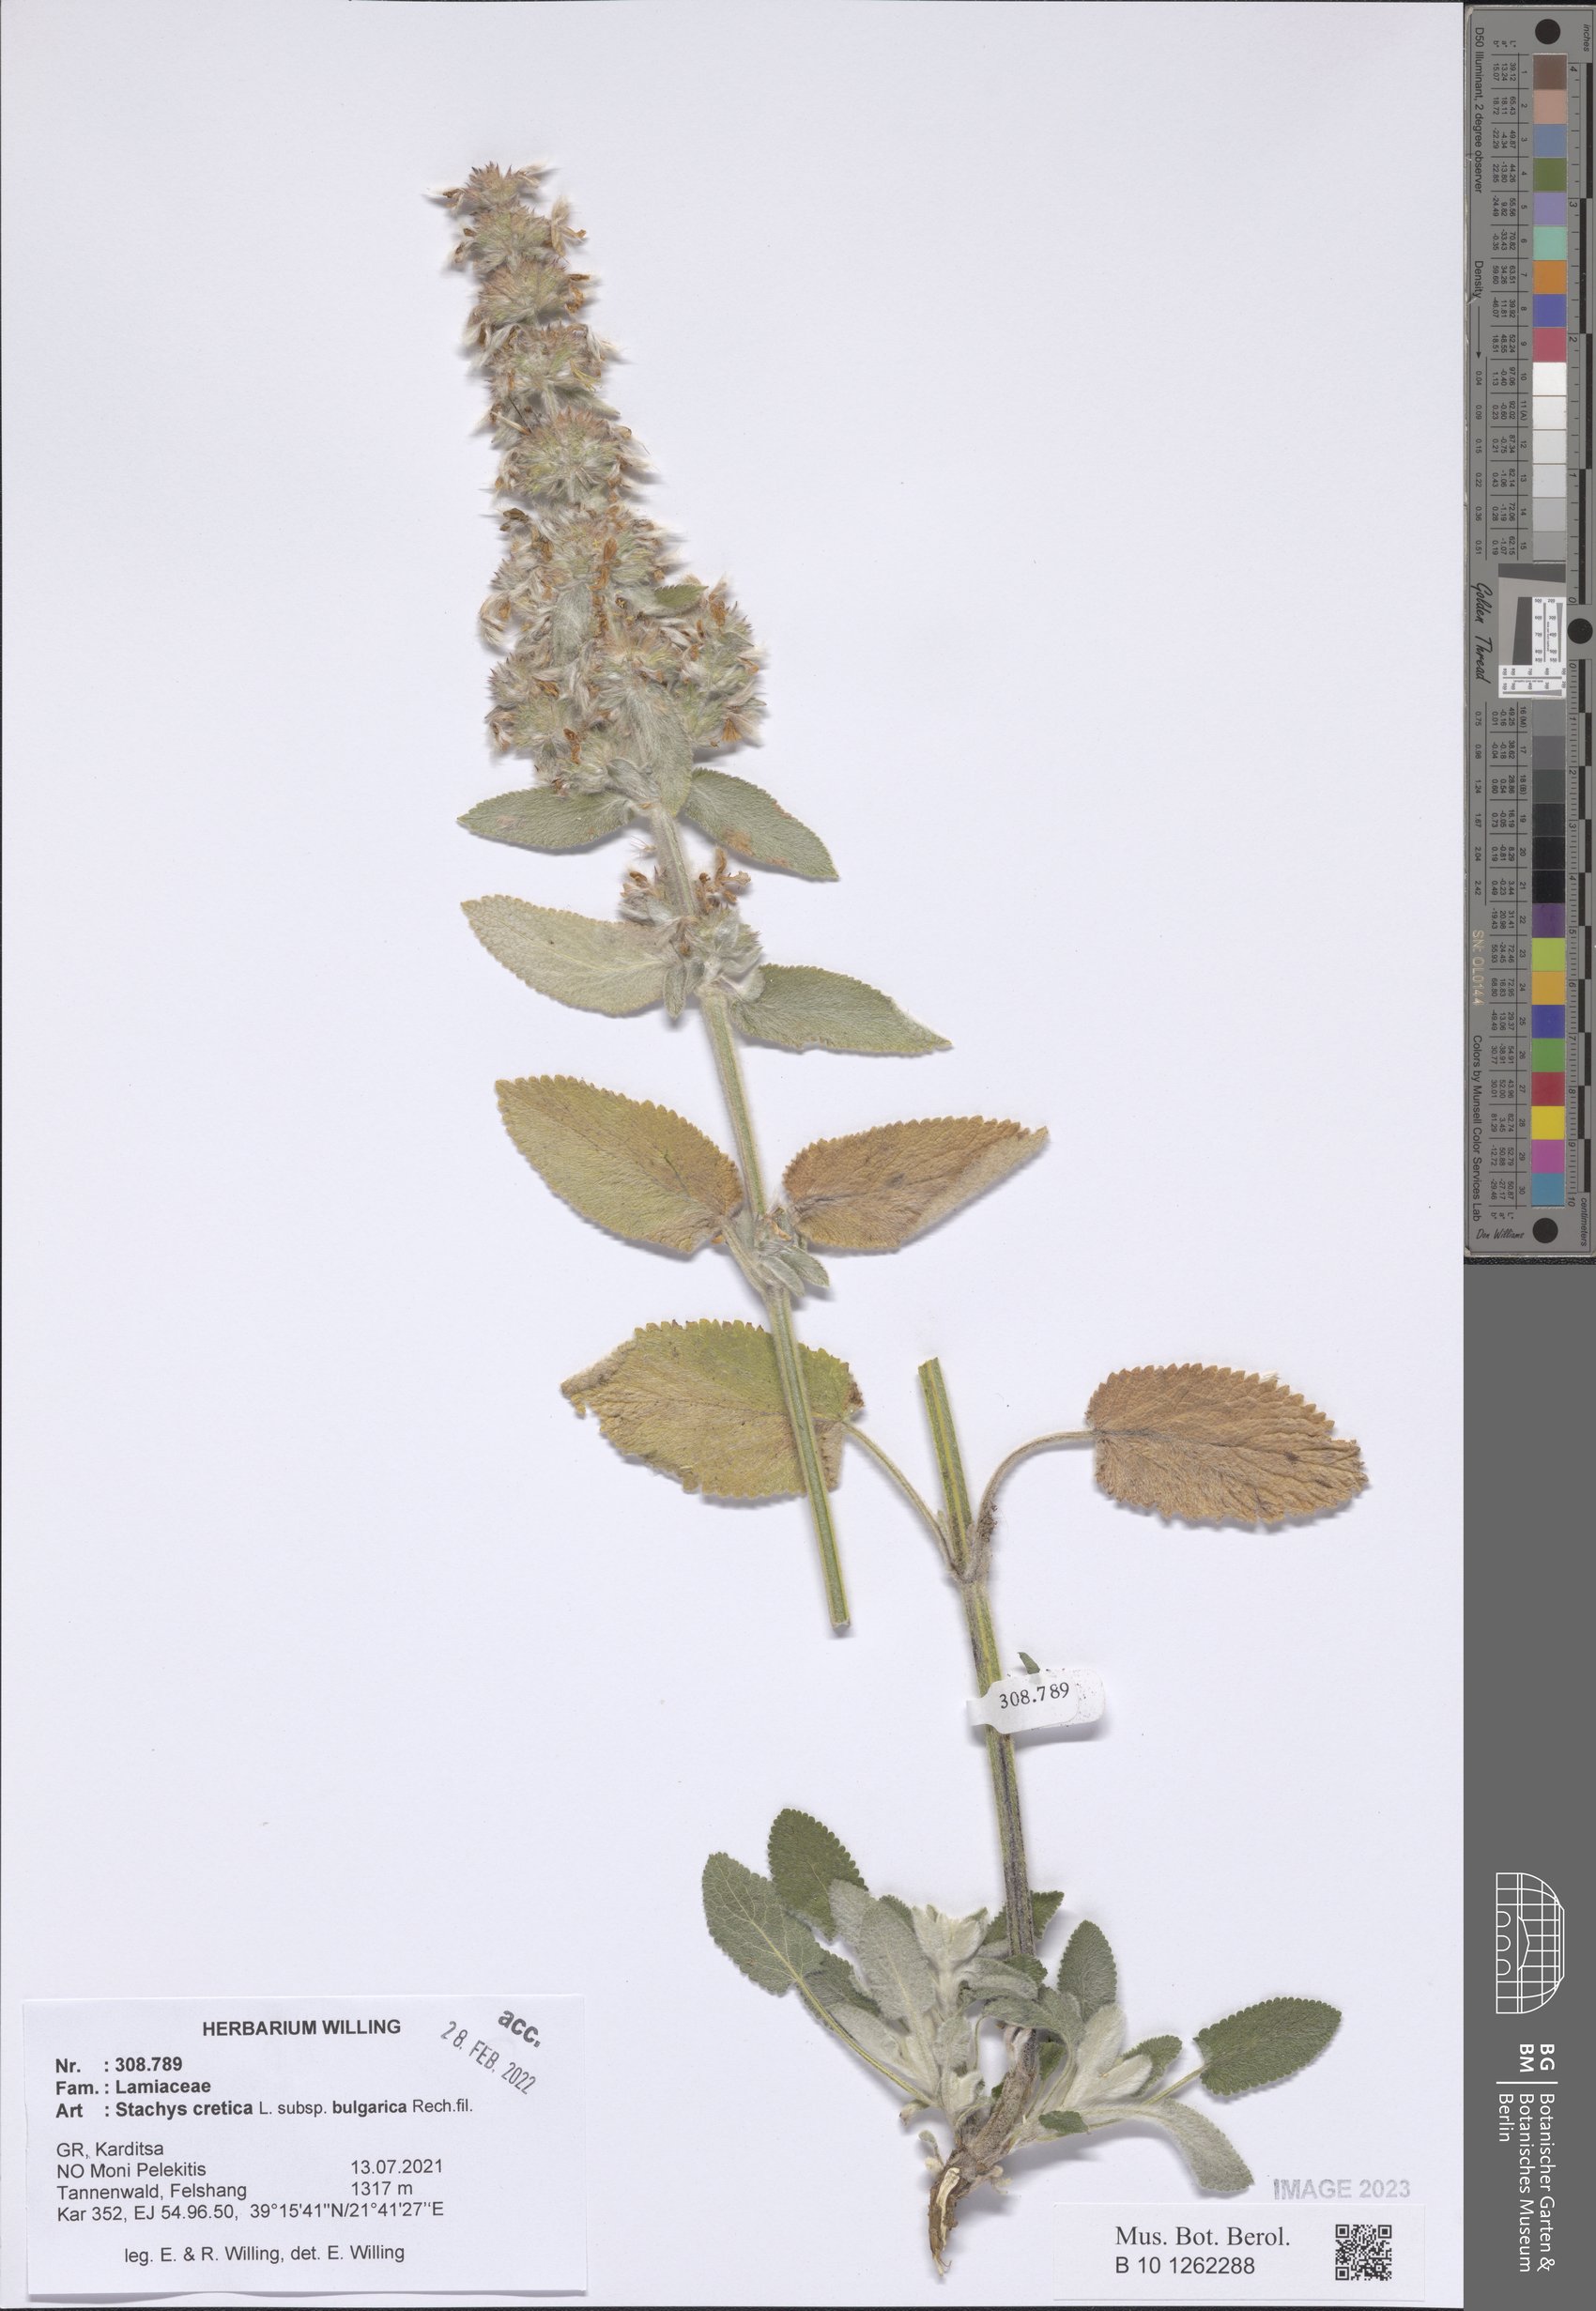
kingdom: Plantae
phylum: Tracheophyta
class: Magnoliopsida
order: Lamiales
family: Lamiaceae
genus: Stachys
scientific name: Stachys cretica
